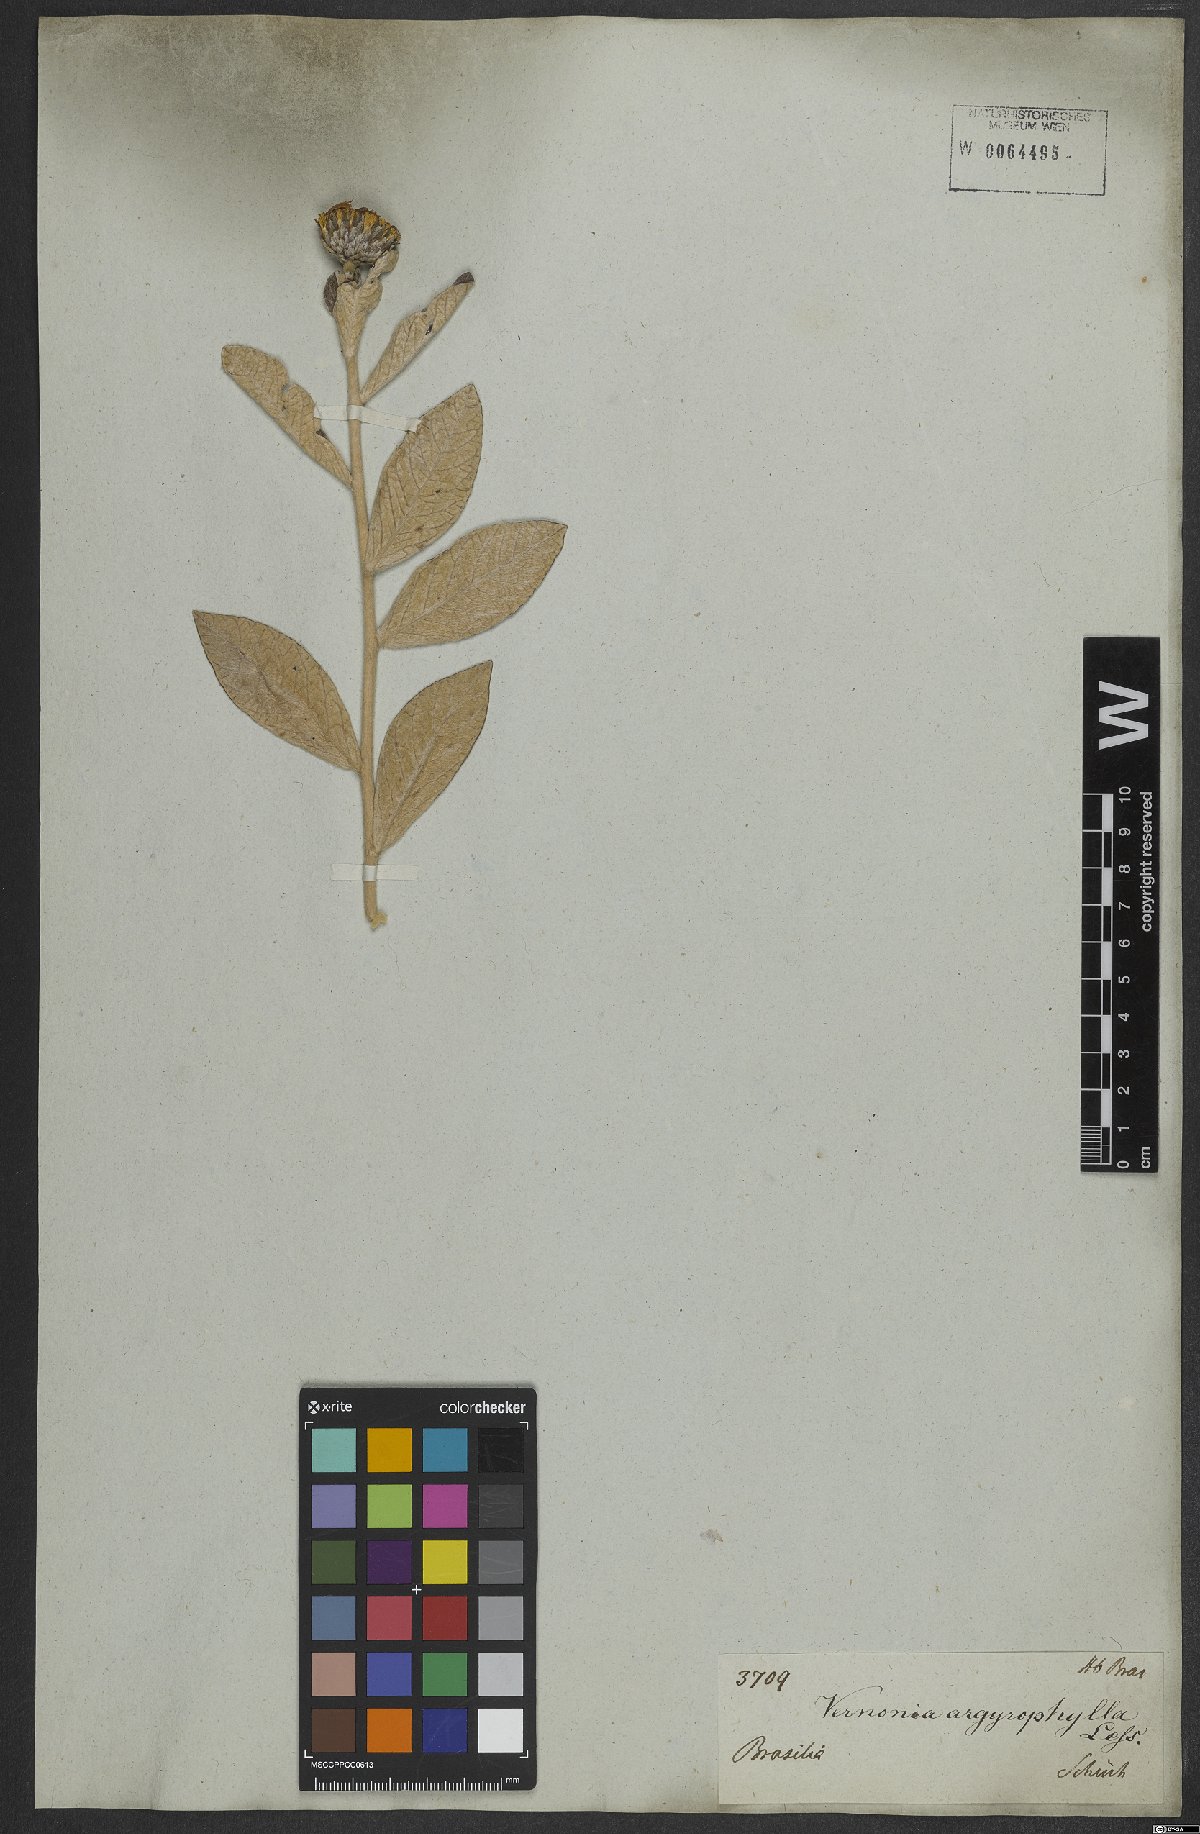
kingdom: Plantae
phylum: Tracheophyta
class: Magnoliopsida
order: Asterales
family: Asteraceae
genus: Lessingianthus
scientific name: Lessingianthus argyrophyllus
